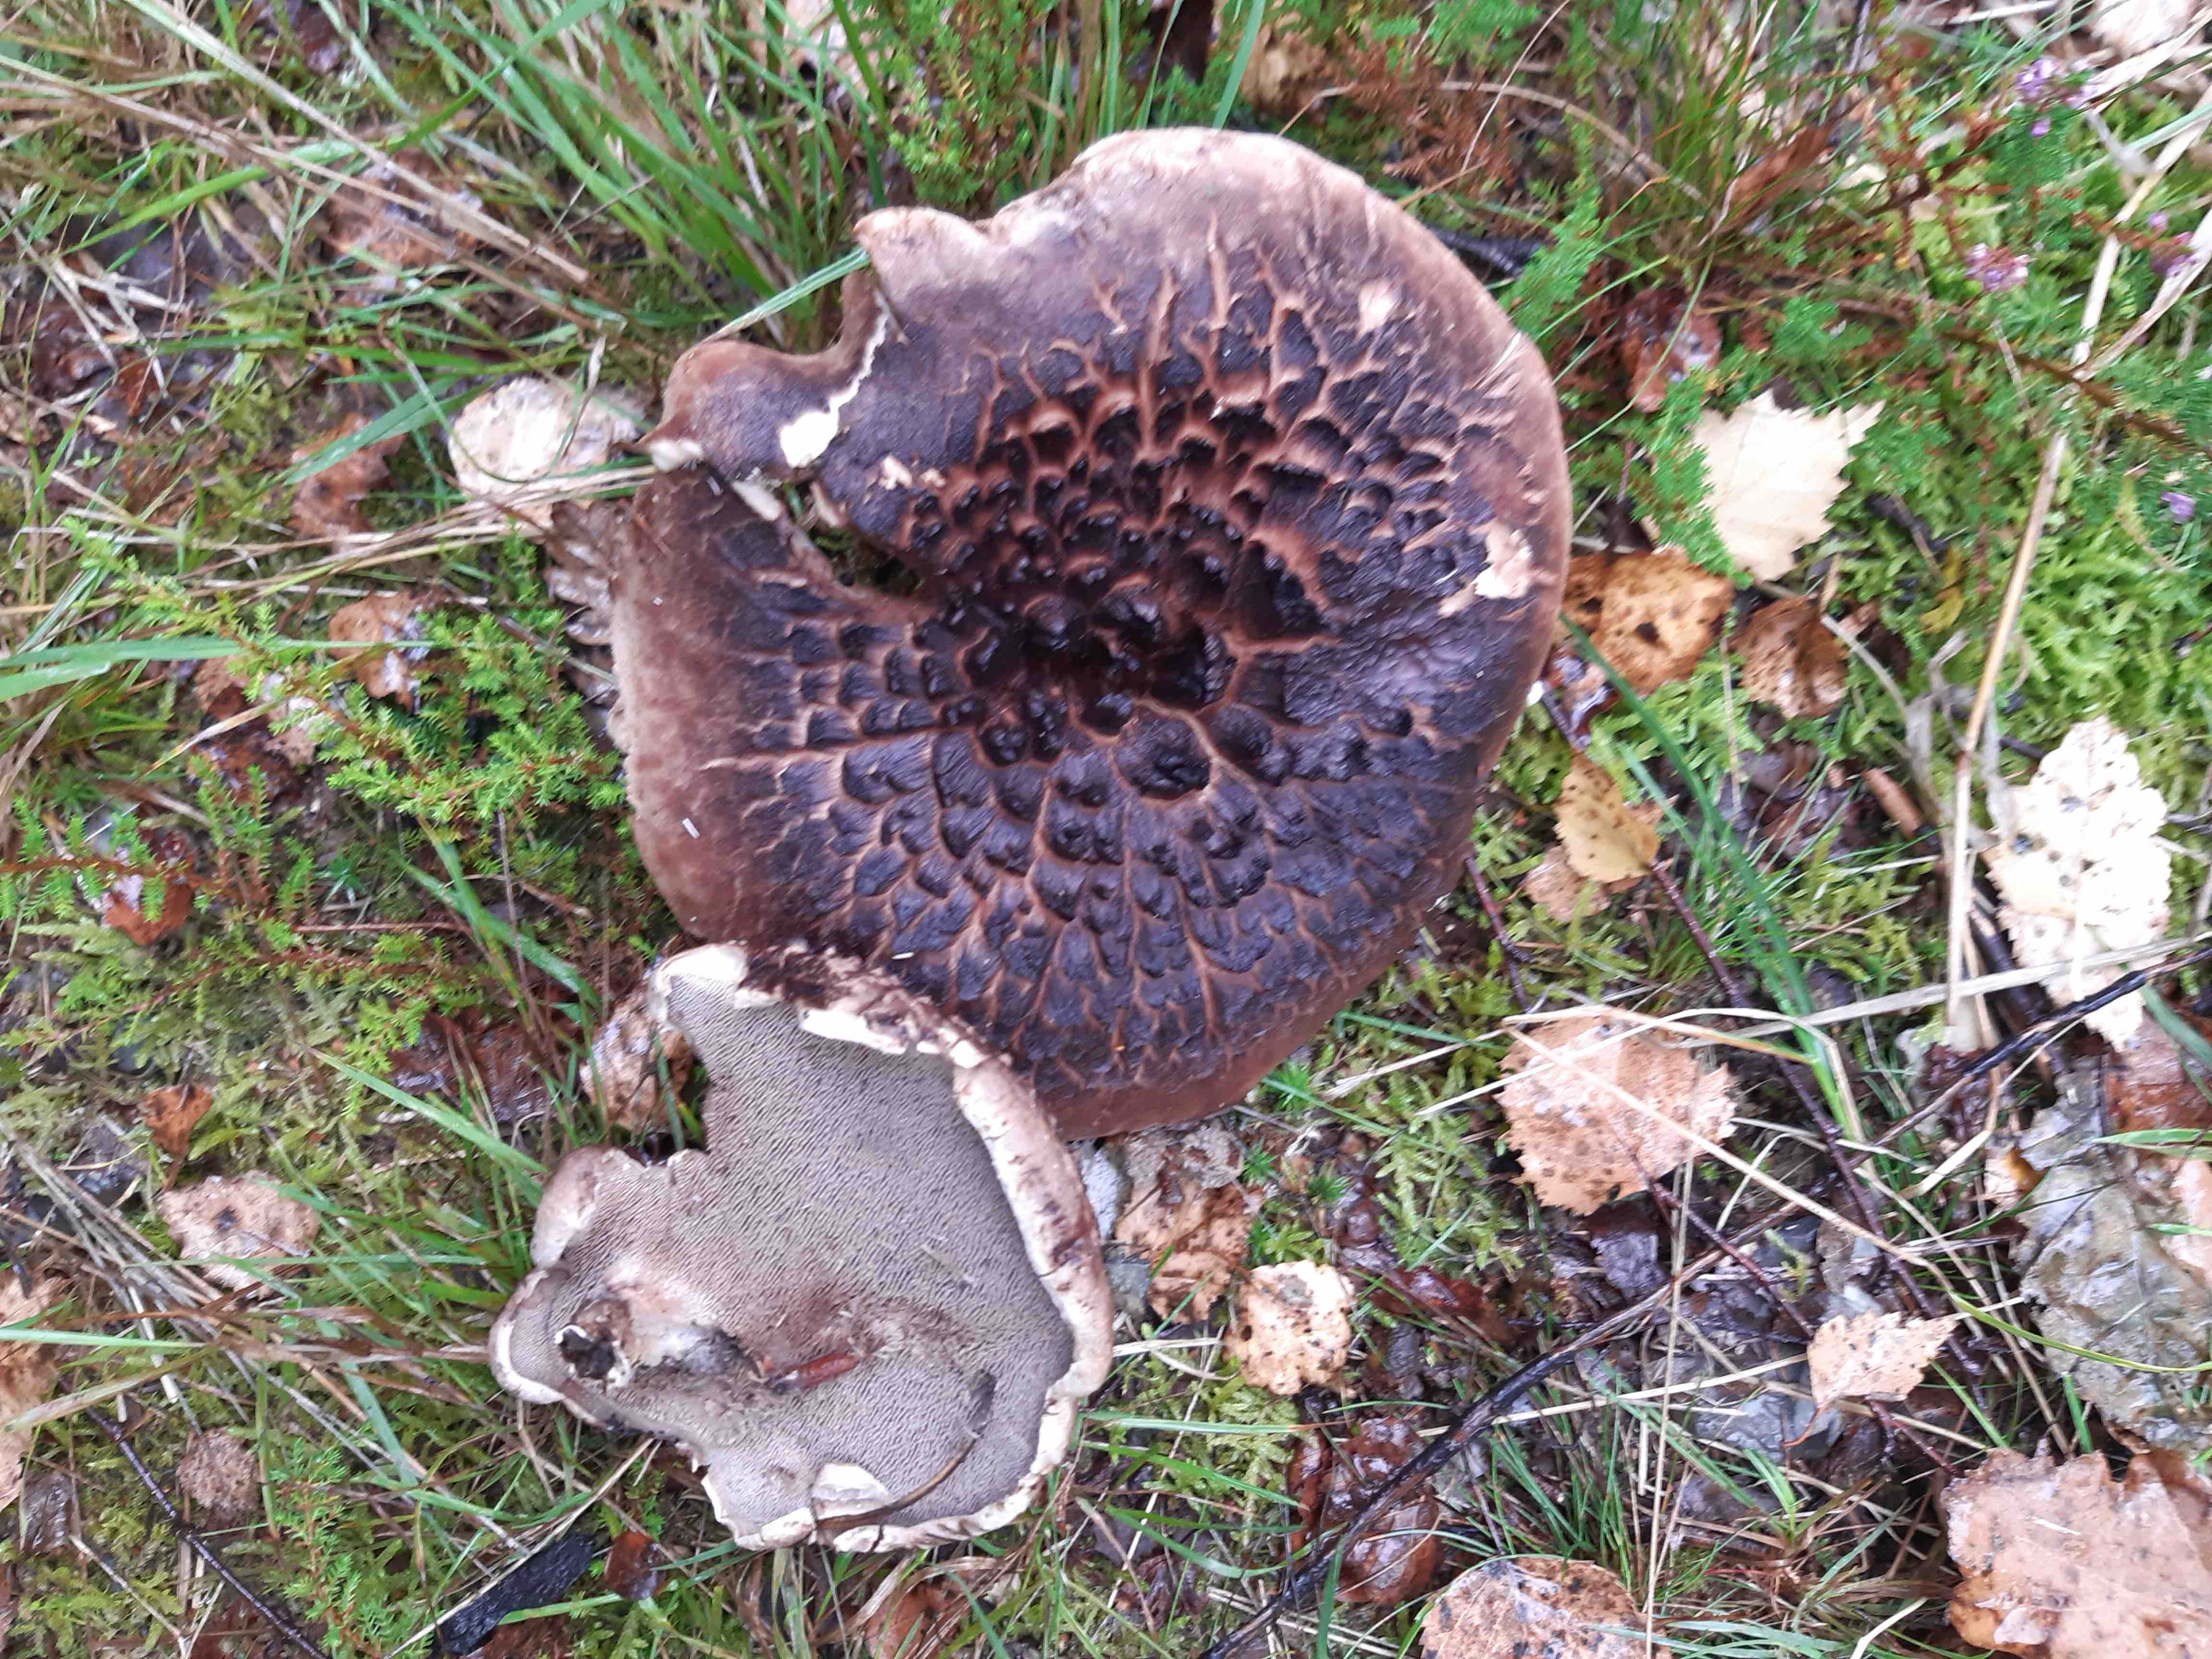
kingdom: Fungi
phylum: Basidiomycota
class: Agaricomycetes
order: Thelephorales
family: Bankeraceae
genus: Sarcodon
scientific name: Sarcodon squamosus
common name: småskællet kødpigsvamp
